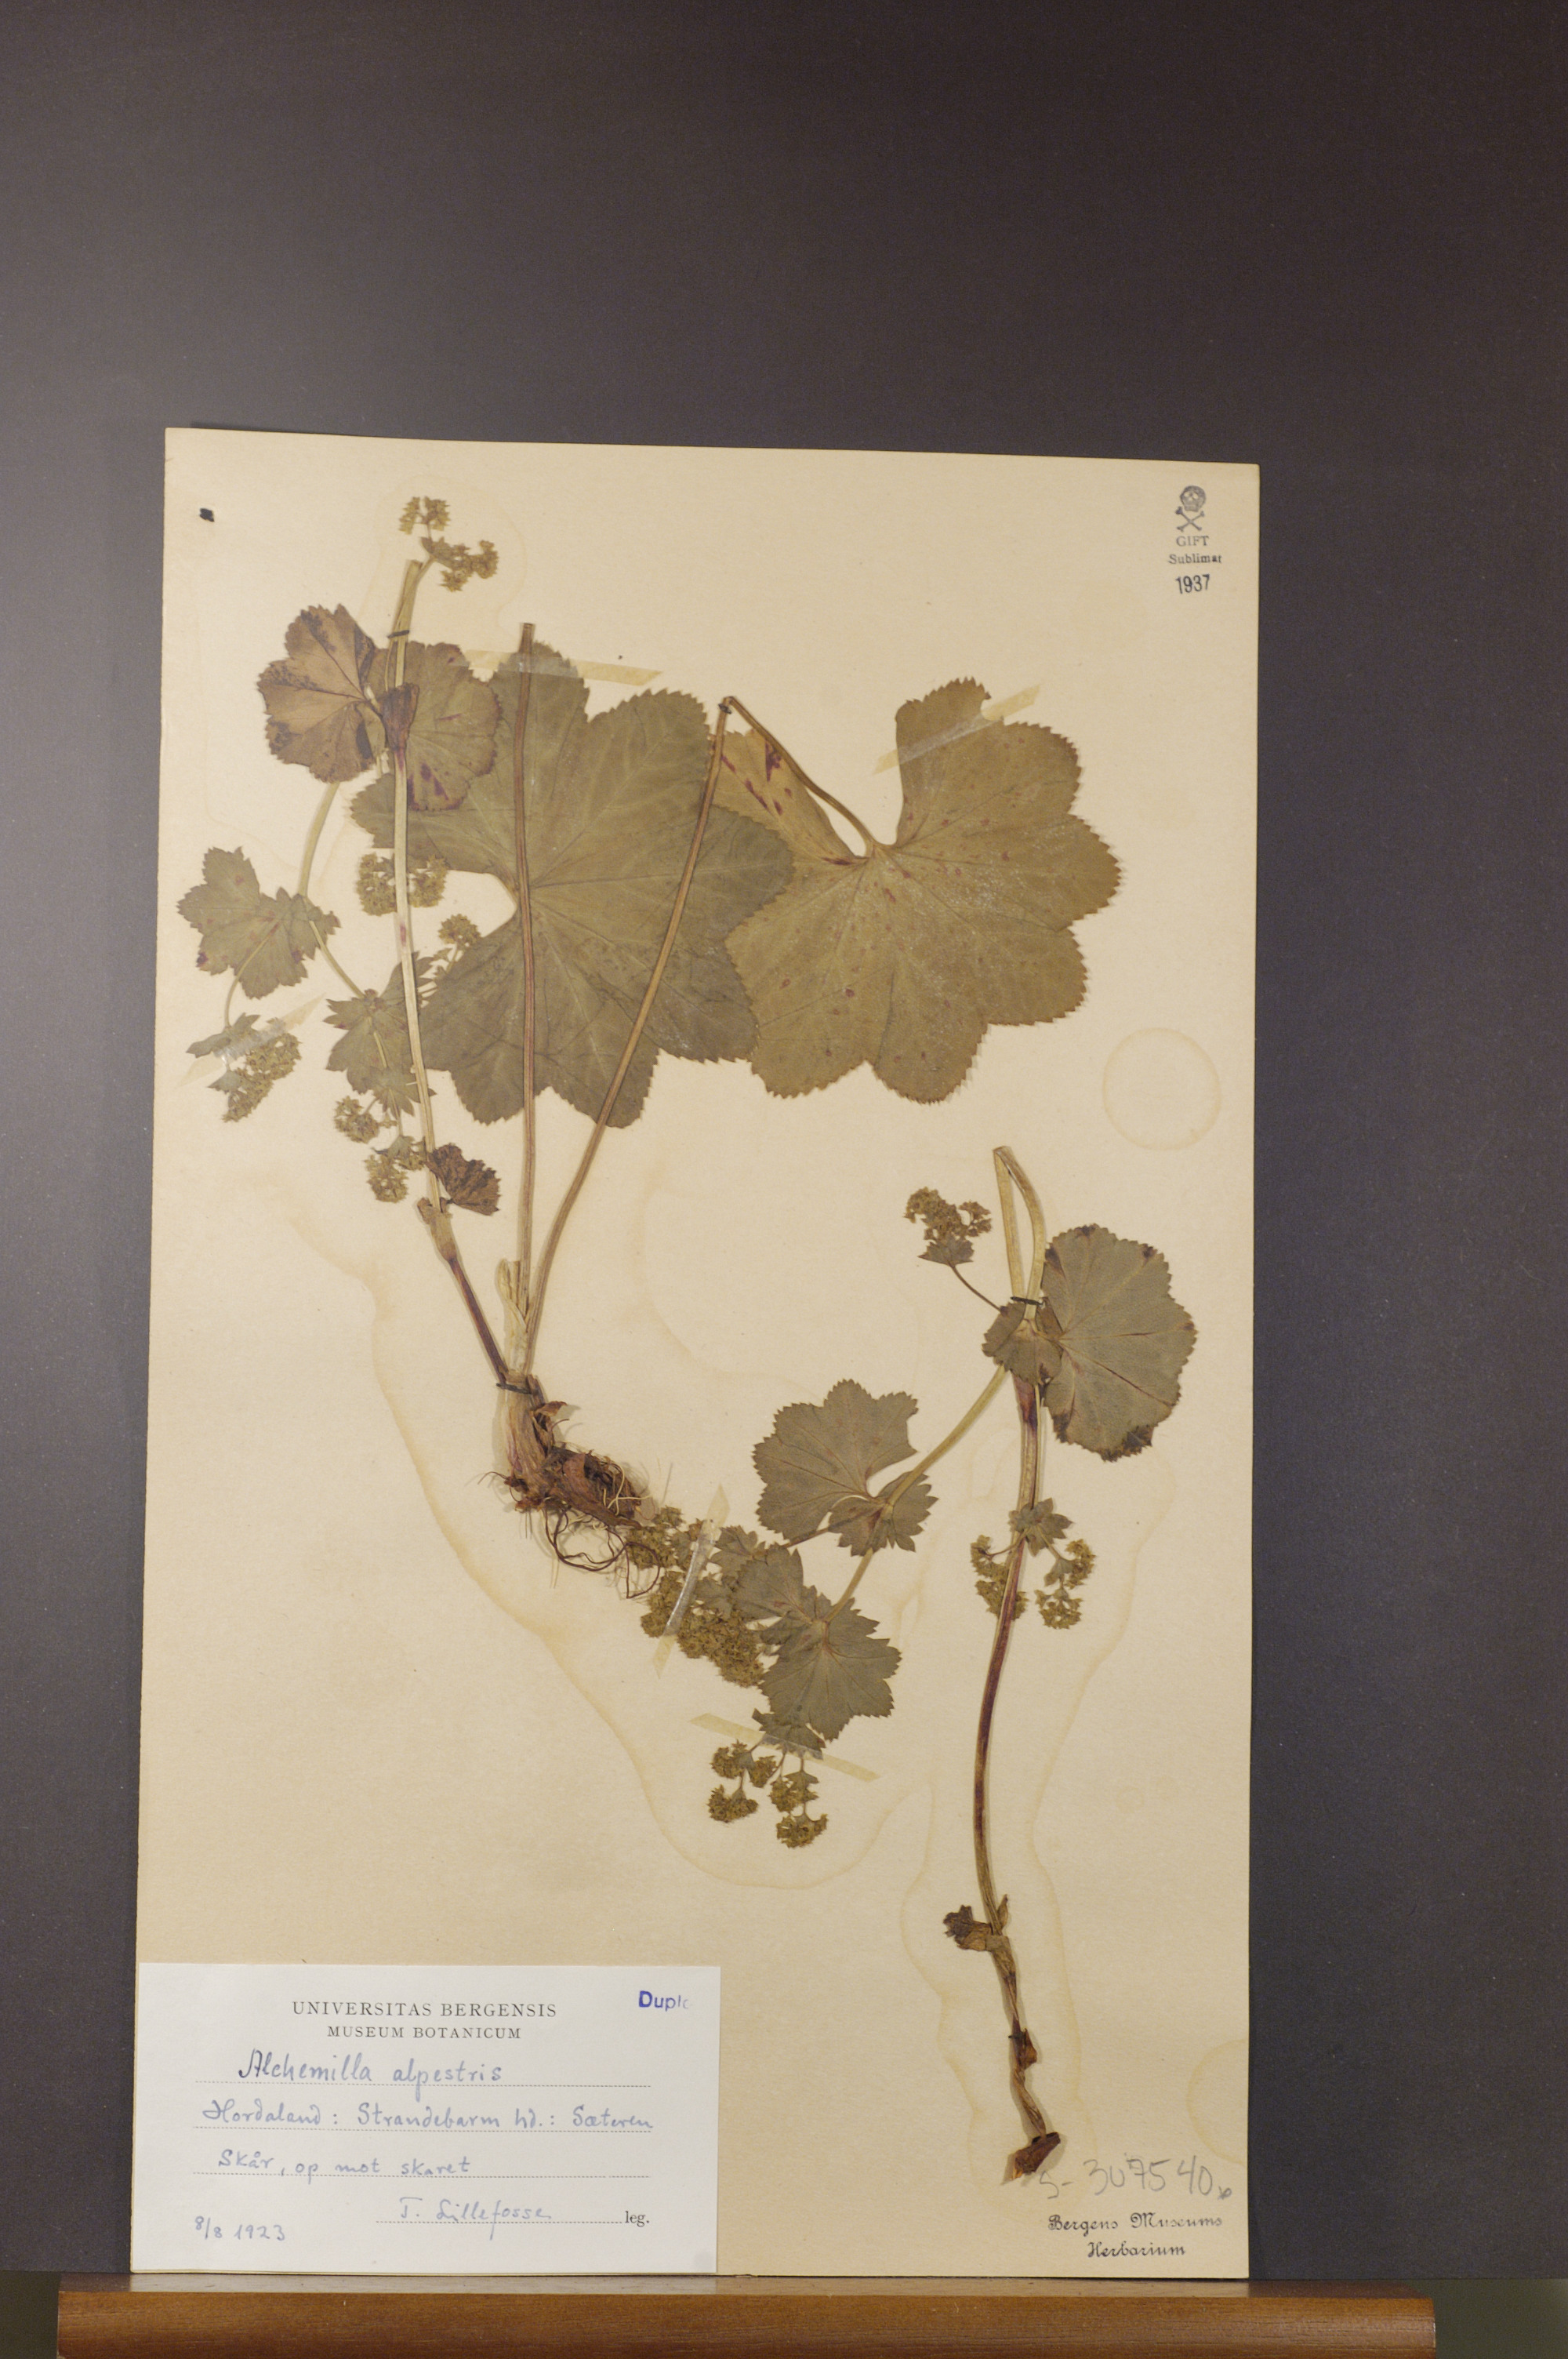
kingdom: Plantae
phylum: Tracheophyta
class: Magnoliopsida
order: Rosales
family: Rosaceae
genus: Alchemilla
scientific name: Alchemilla glabra
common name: Smooth lady's-mantle
